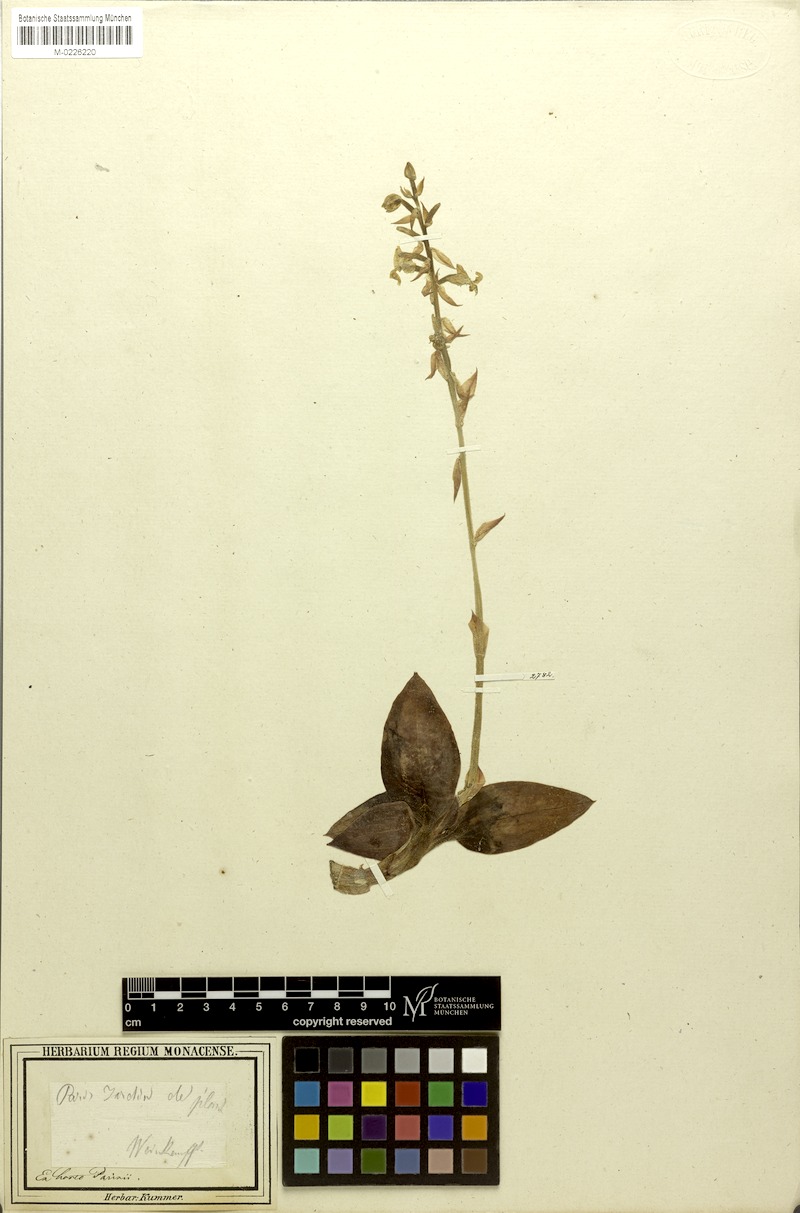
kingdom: Plantae
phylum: Tracheophyta
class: Liliopsida
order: Asparagales
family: Orchidaceae
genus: Ludisia
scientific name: Ludisia discolor
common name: Jewel orchid
